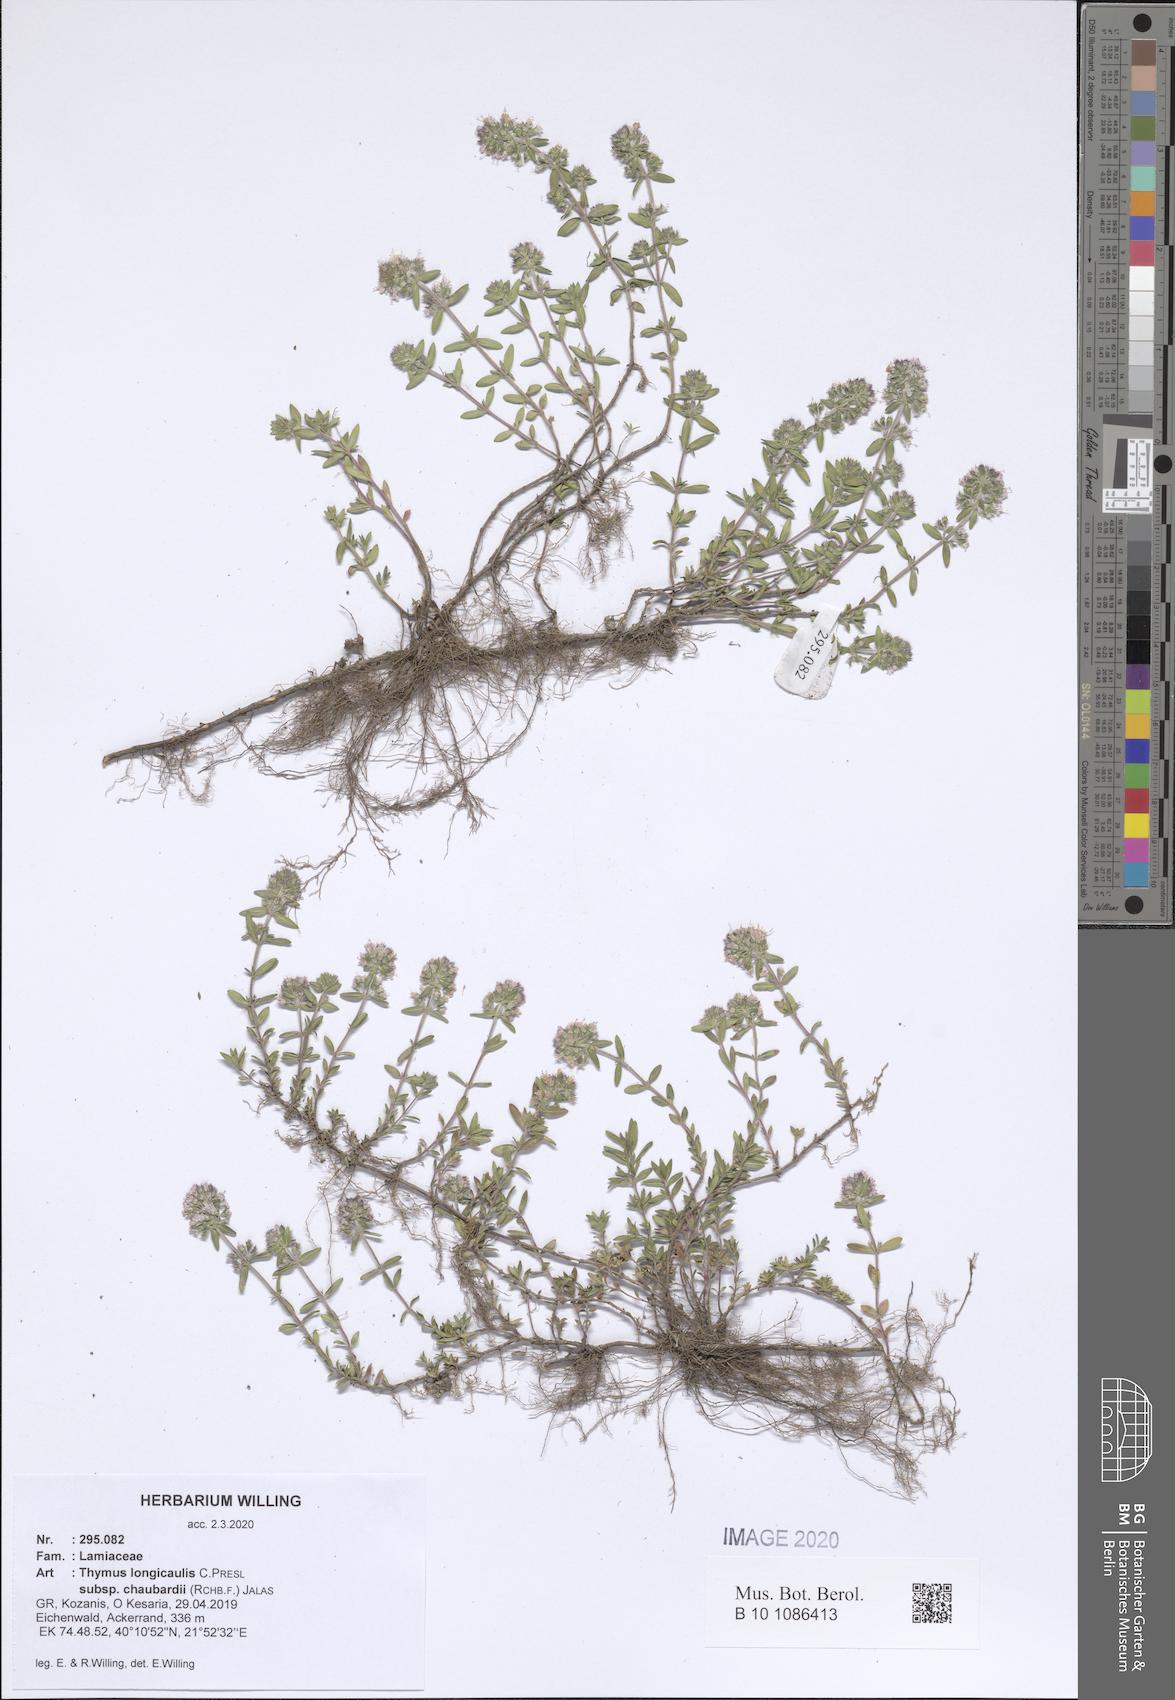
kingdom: Plantae
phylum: Tracheophyta
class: Magnoliopsida
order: Lamiales
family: Lamiaceae
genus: Thymus
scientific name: Thymus longicaulis
